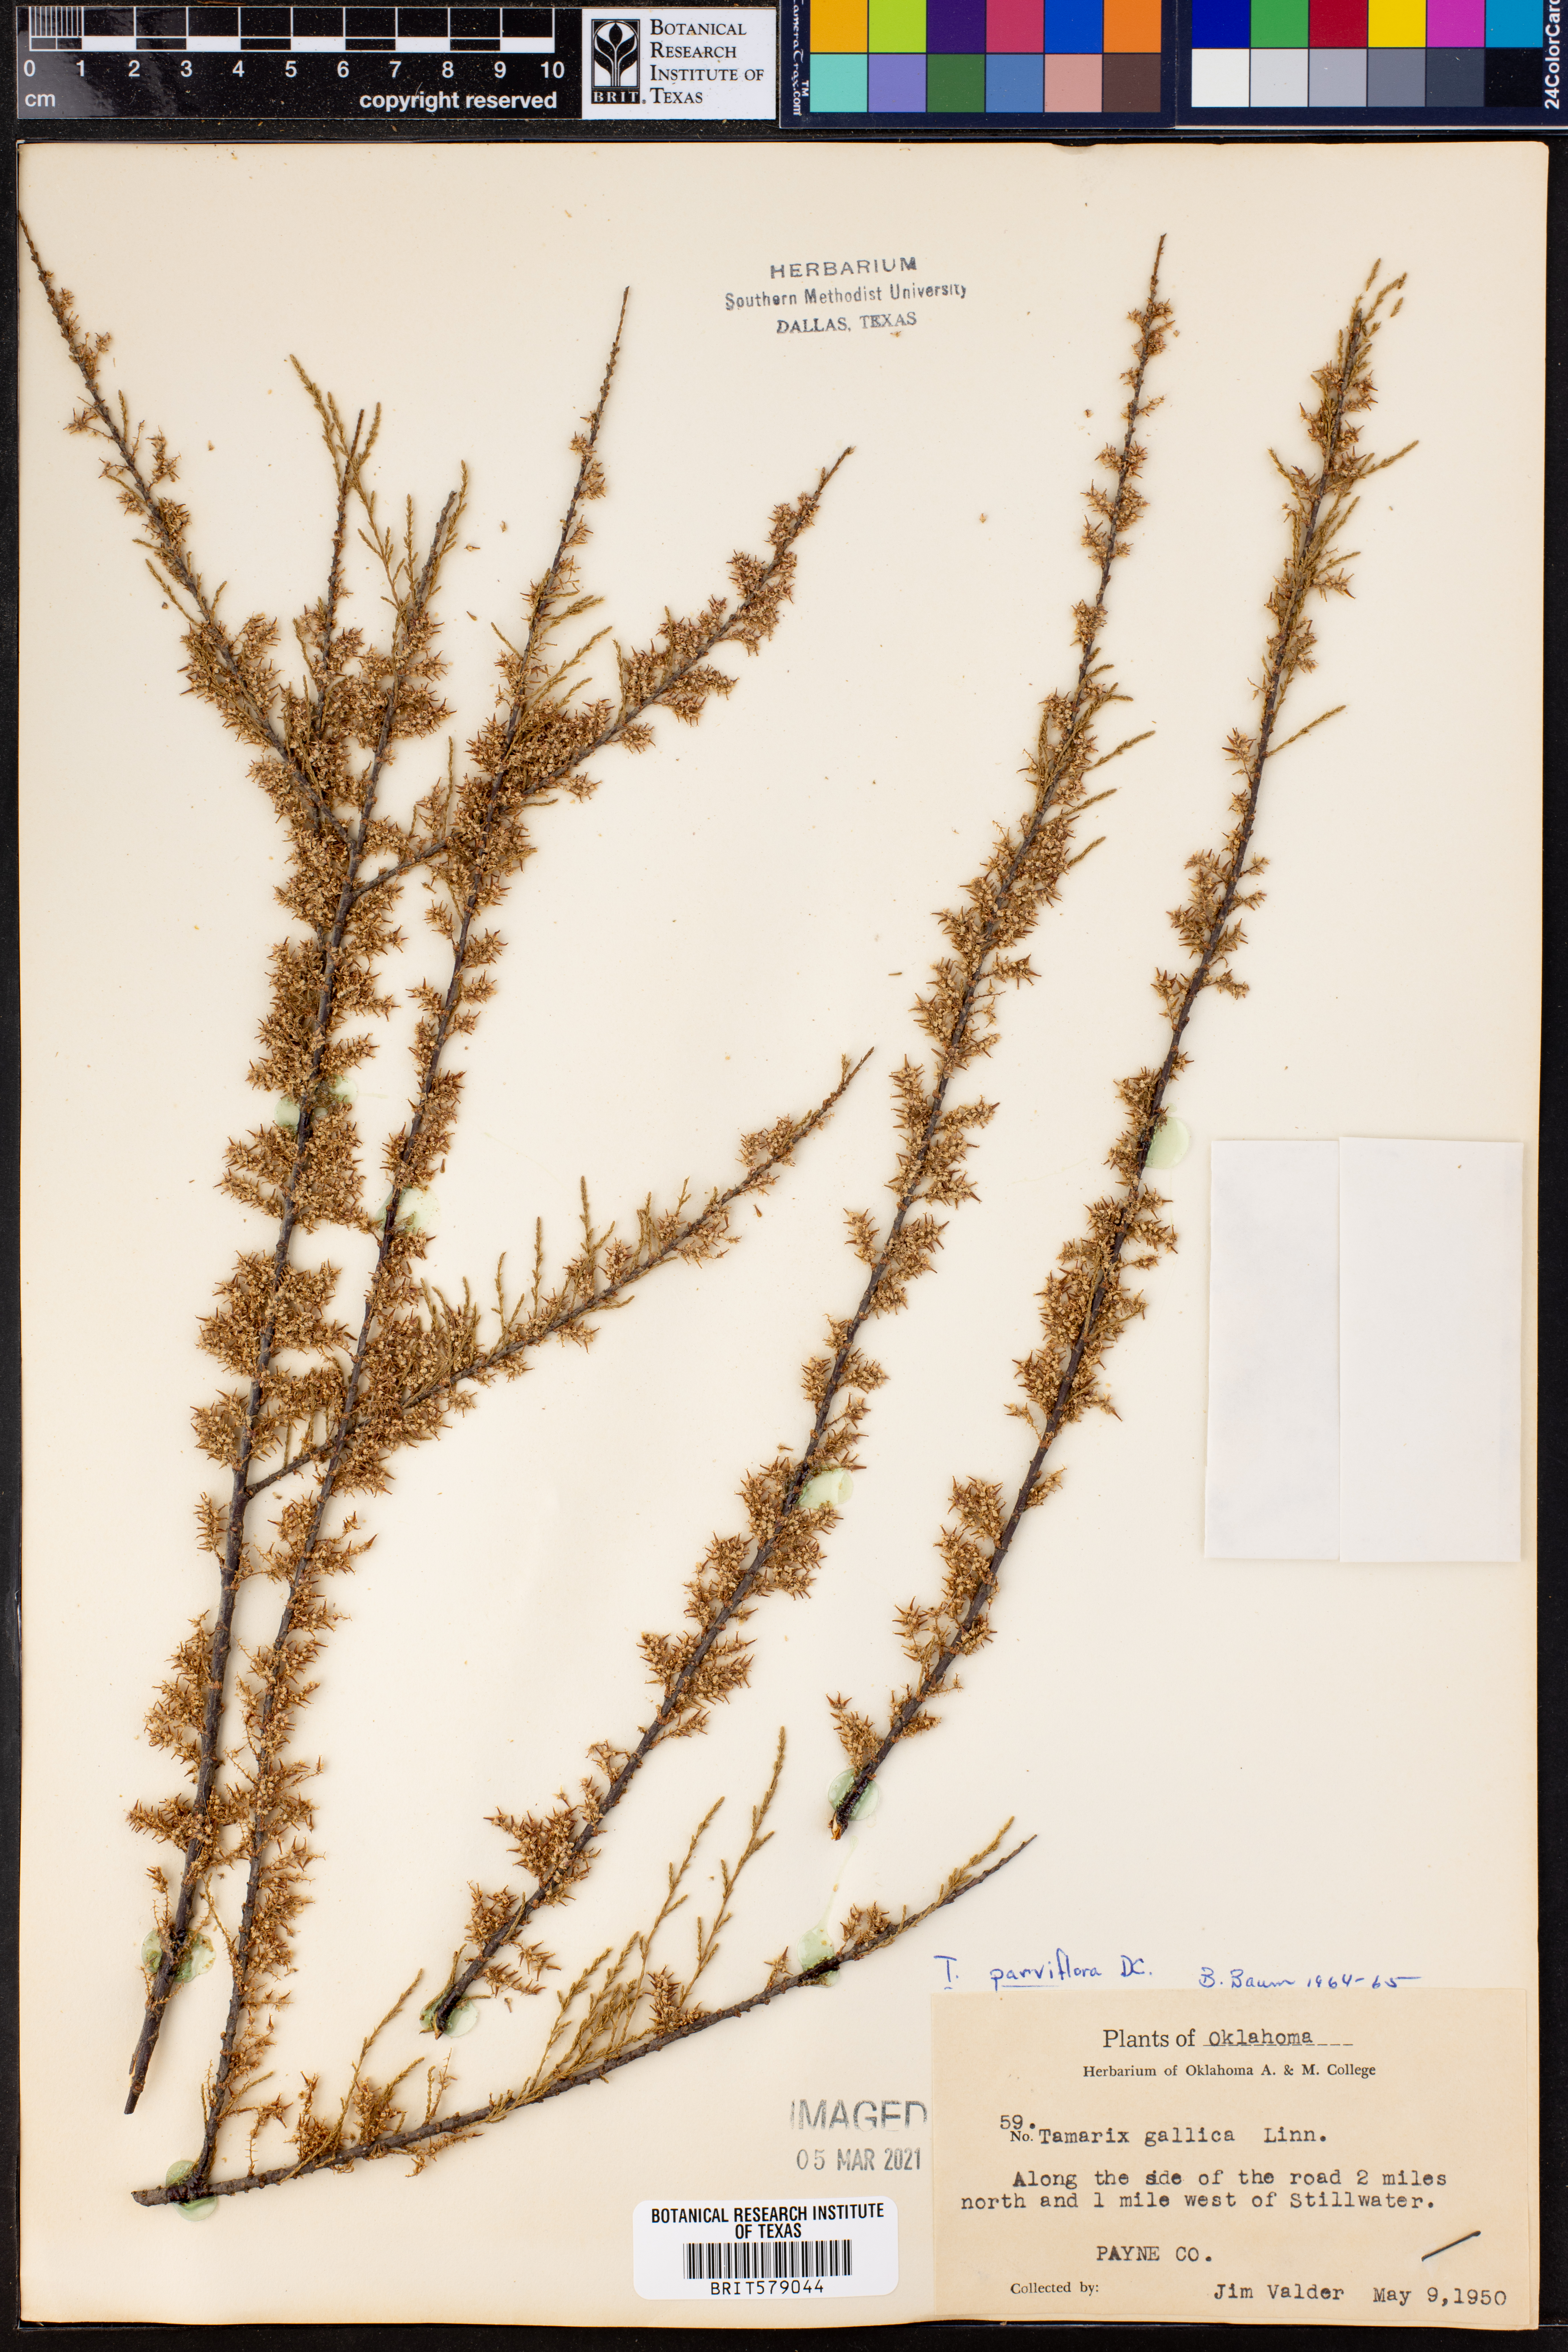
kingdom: Plantae
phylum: Tracheophyta
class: Magnoliopsida
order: Caryophyllales
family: Tamaricaceae
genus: Tamarix
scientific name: Tamarix parviflora
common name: Smallflower tamarisk
